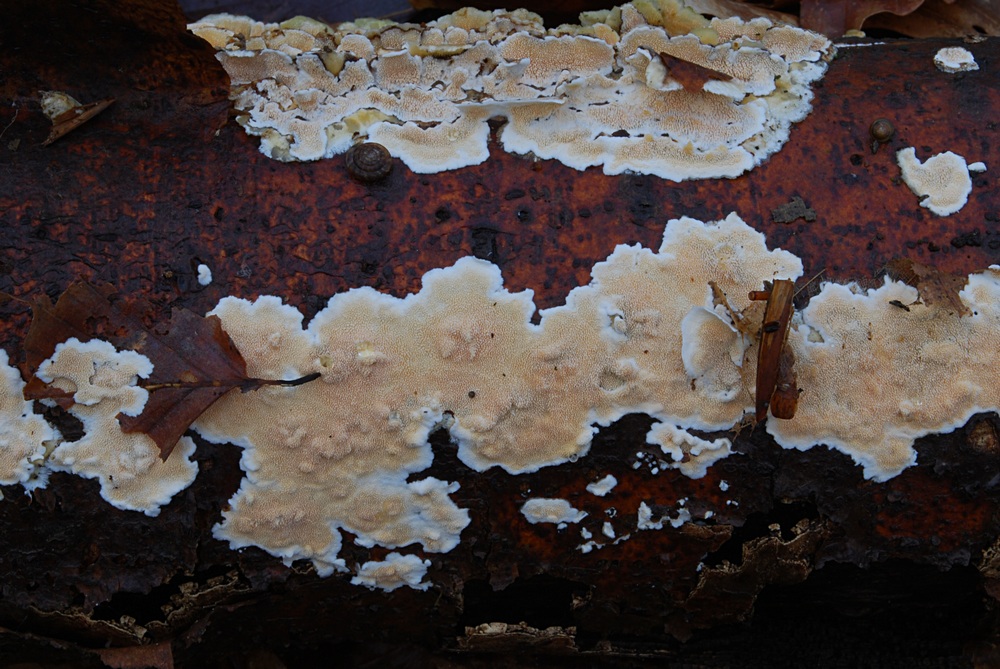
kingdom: Fungi
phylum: Basidiomycota
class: Agaricomycetes
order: Polyporales
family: Steccherinaceae
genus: Steccherinum
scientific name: Steccherinum ochraceum
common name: almindelig skønpig
